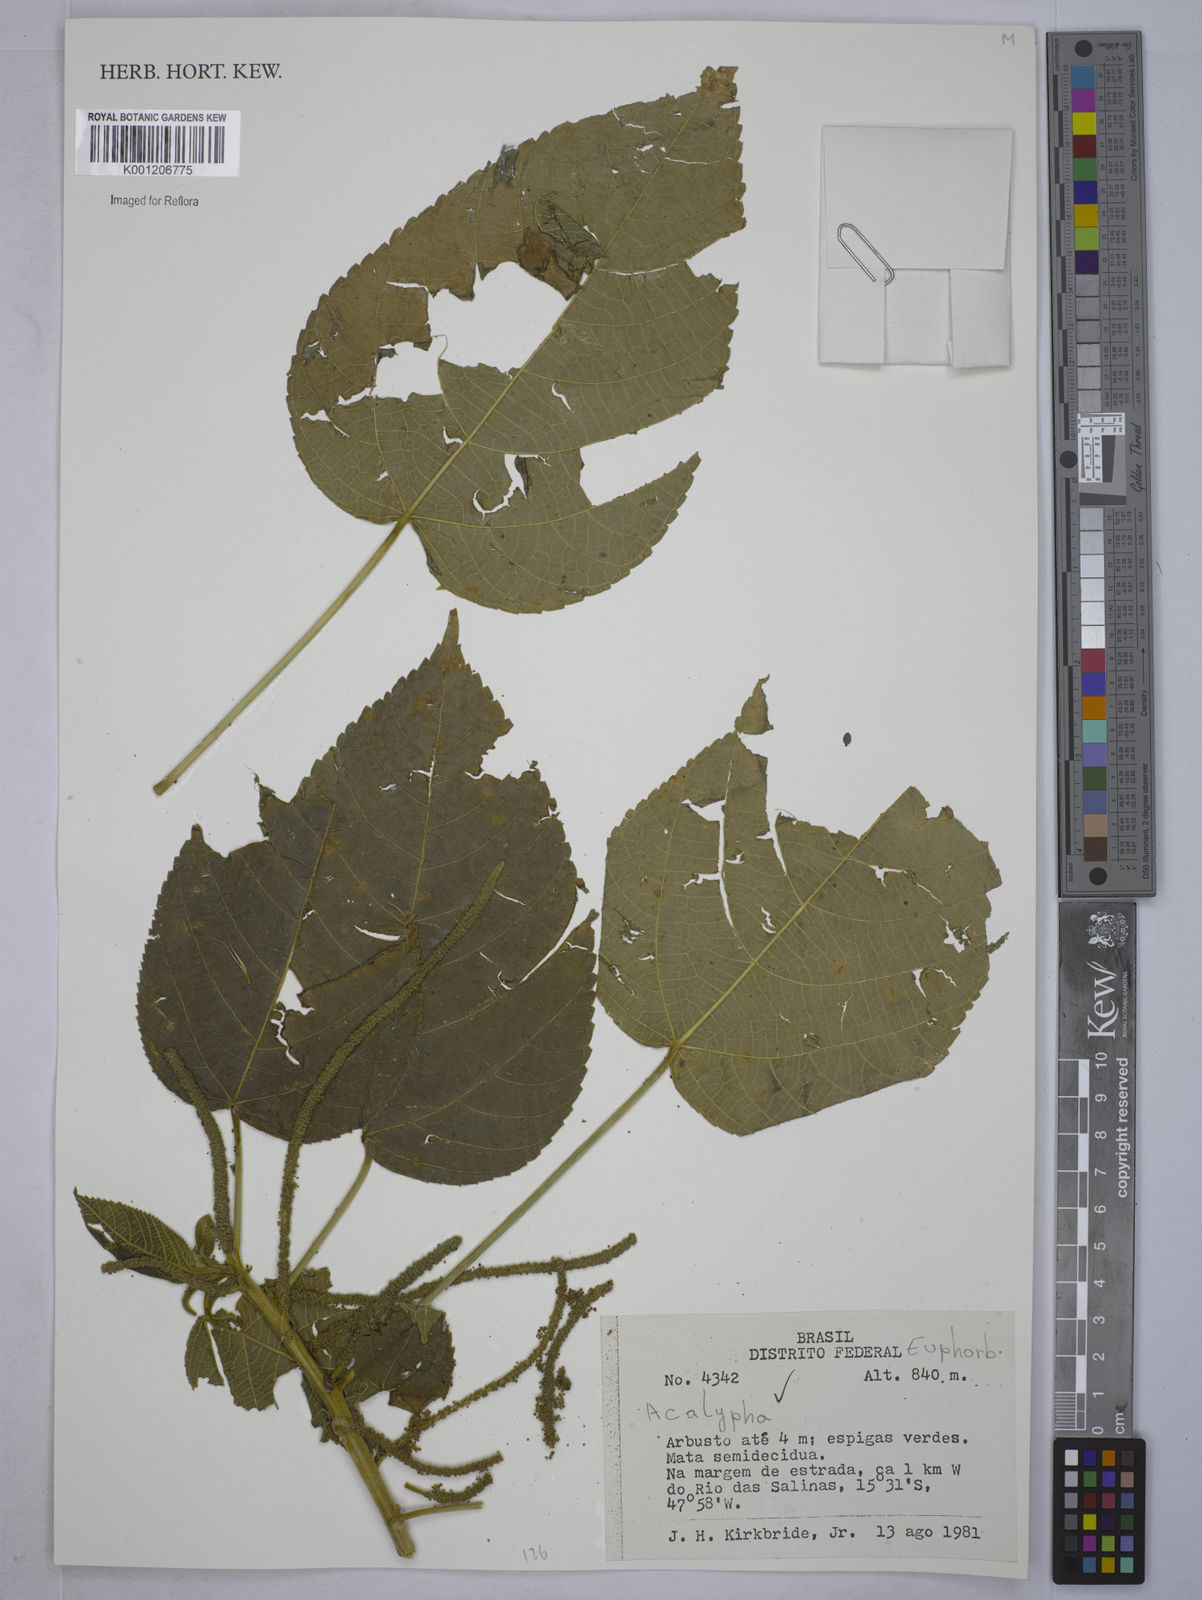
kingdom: Plantae
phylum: Tracheophyta
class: Magnoliopsida
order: Malpighiales
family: Euphorbiaceae
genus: Acalypha
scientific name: Acalypha
